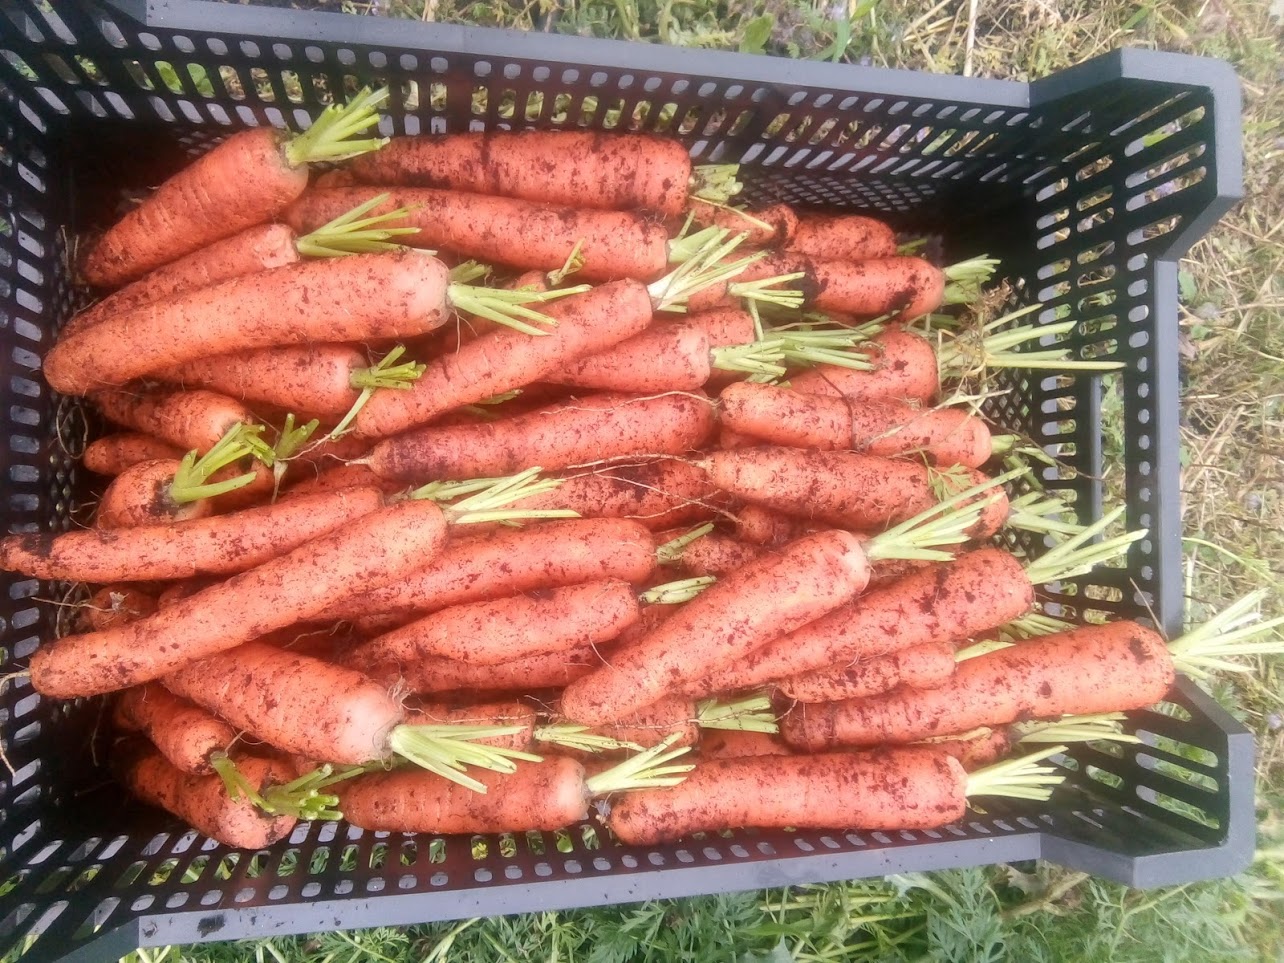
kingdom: Plantae
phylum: Tracheophyta
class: Magnoliopsida
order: Apiales
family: Apiaceae
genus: Daucus
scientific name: Daucus carota
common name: Wild carrot
